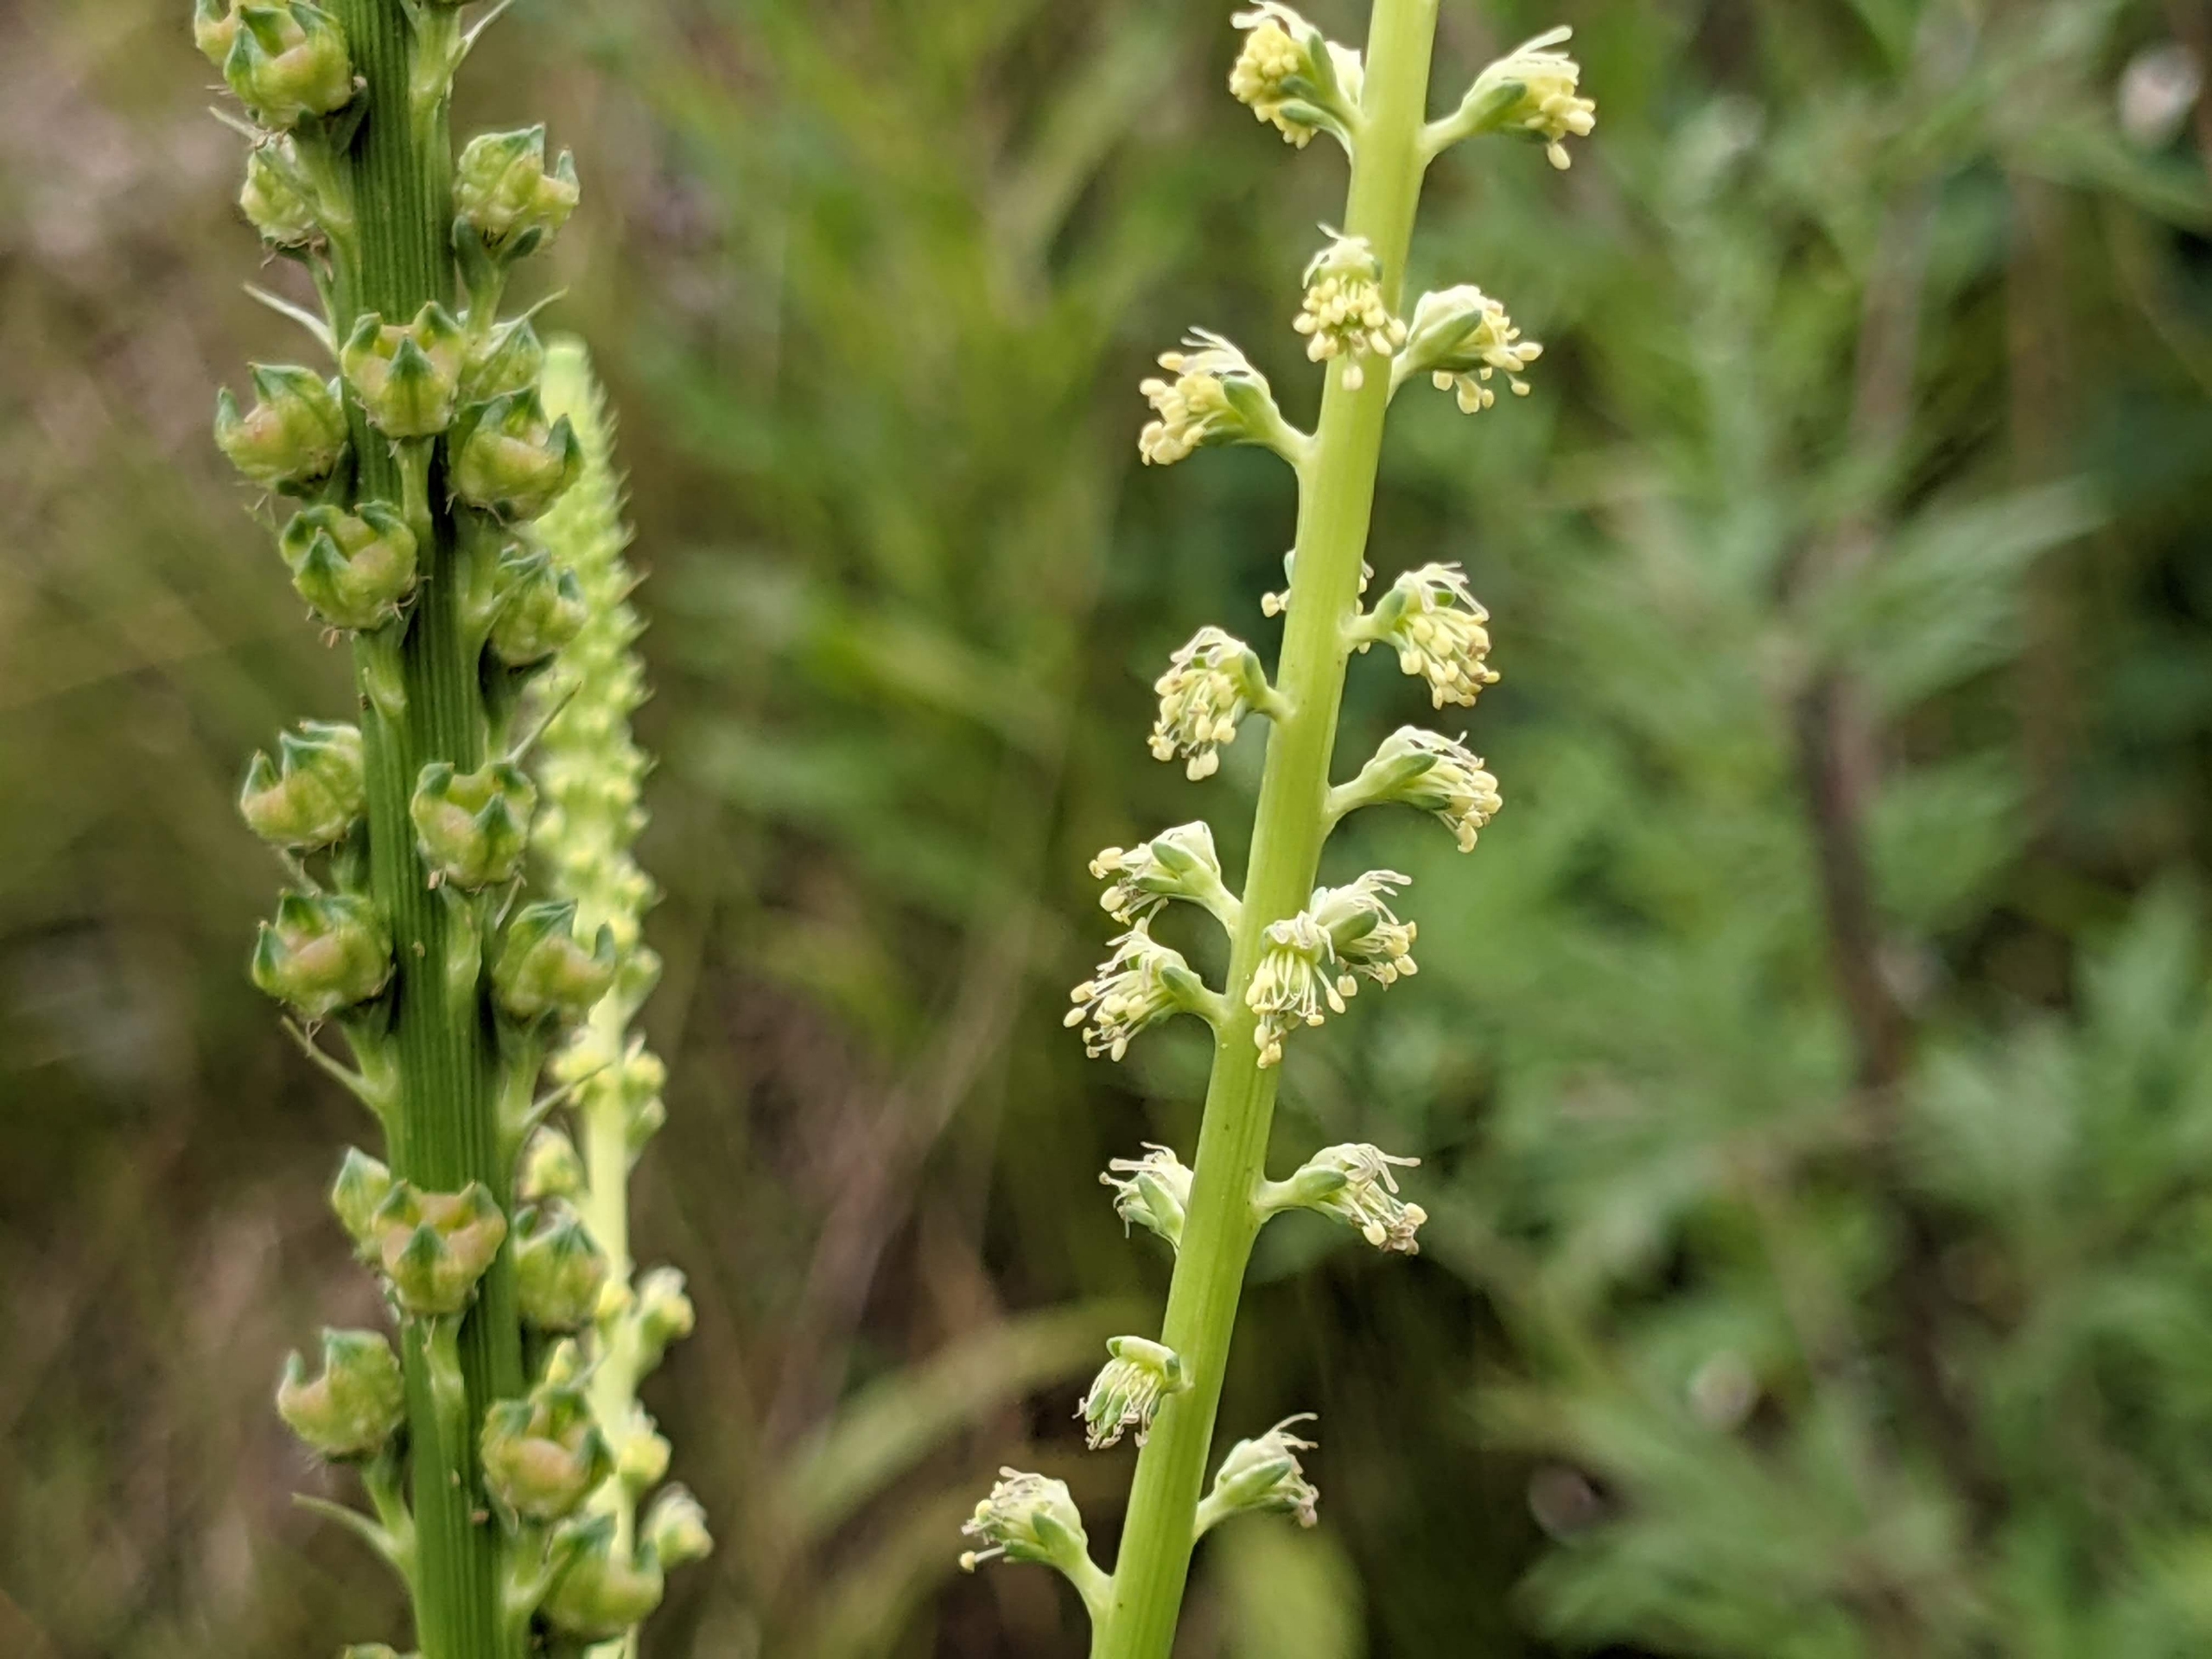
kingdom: Plantae
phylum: Tracheophyta
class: Magnoliopsida
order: Brassicales
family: Resedaceae
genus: Reseda
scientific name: Reseda luteola
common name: Farve-reseda
